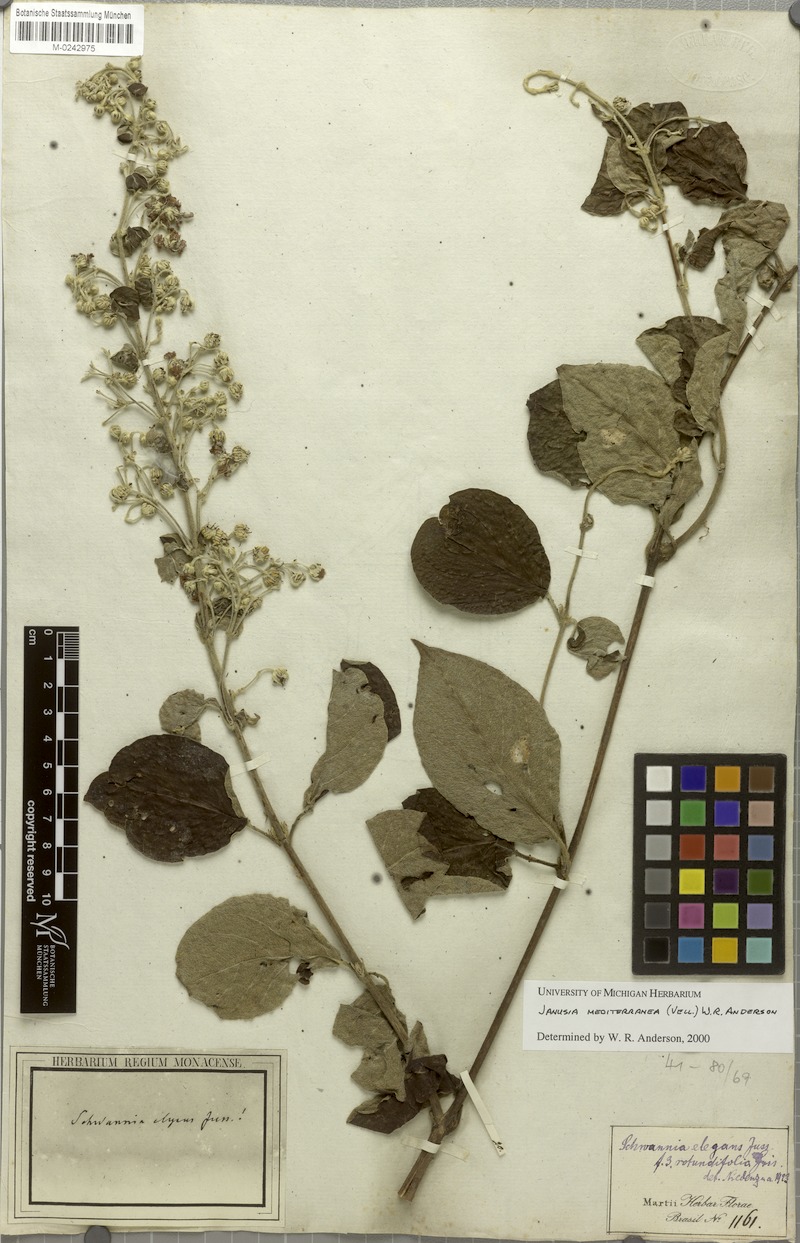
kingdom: Plantae
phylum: Tracheophyta
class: Magnoliopsida
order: Malpighiales
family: Malpighiaceae
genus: Janusia
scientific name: Janusia mediterranea
